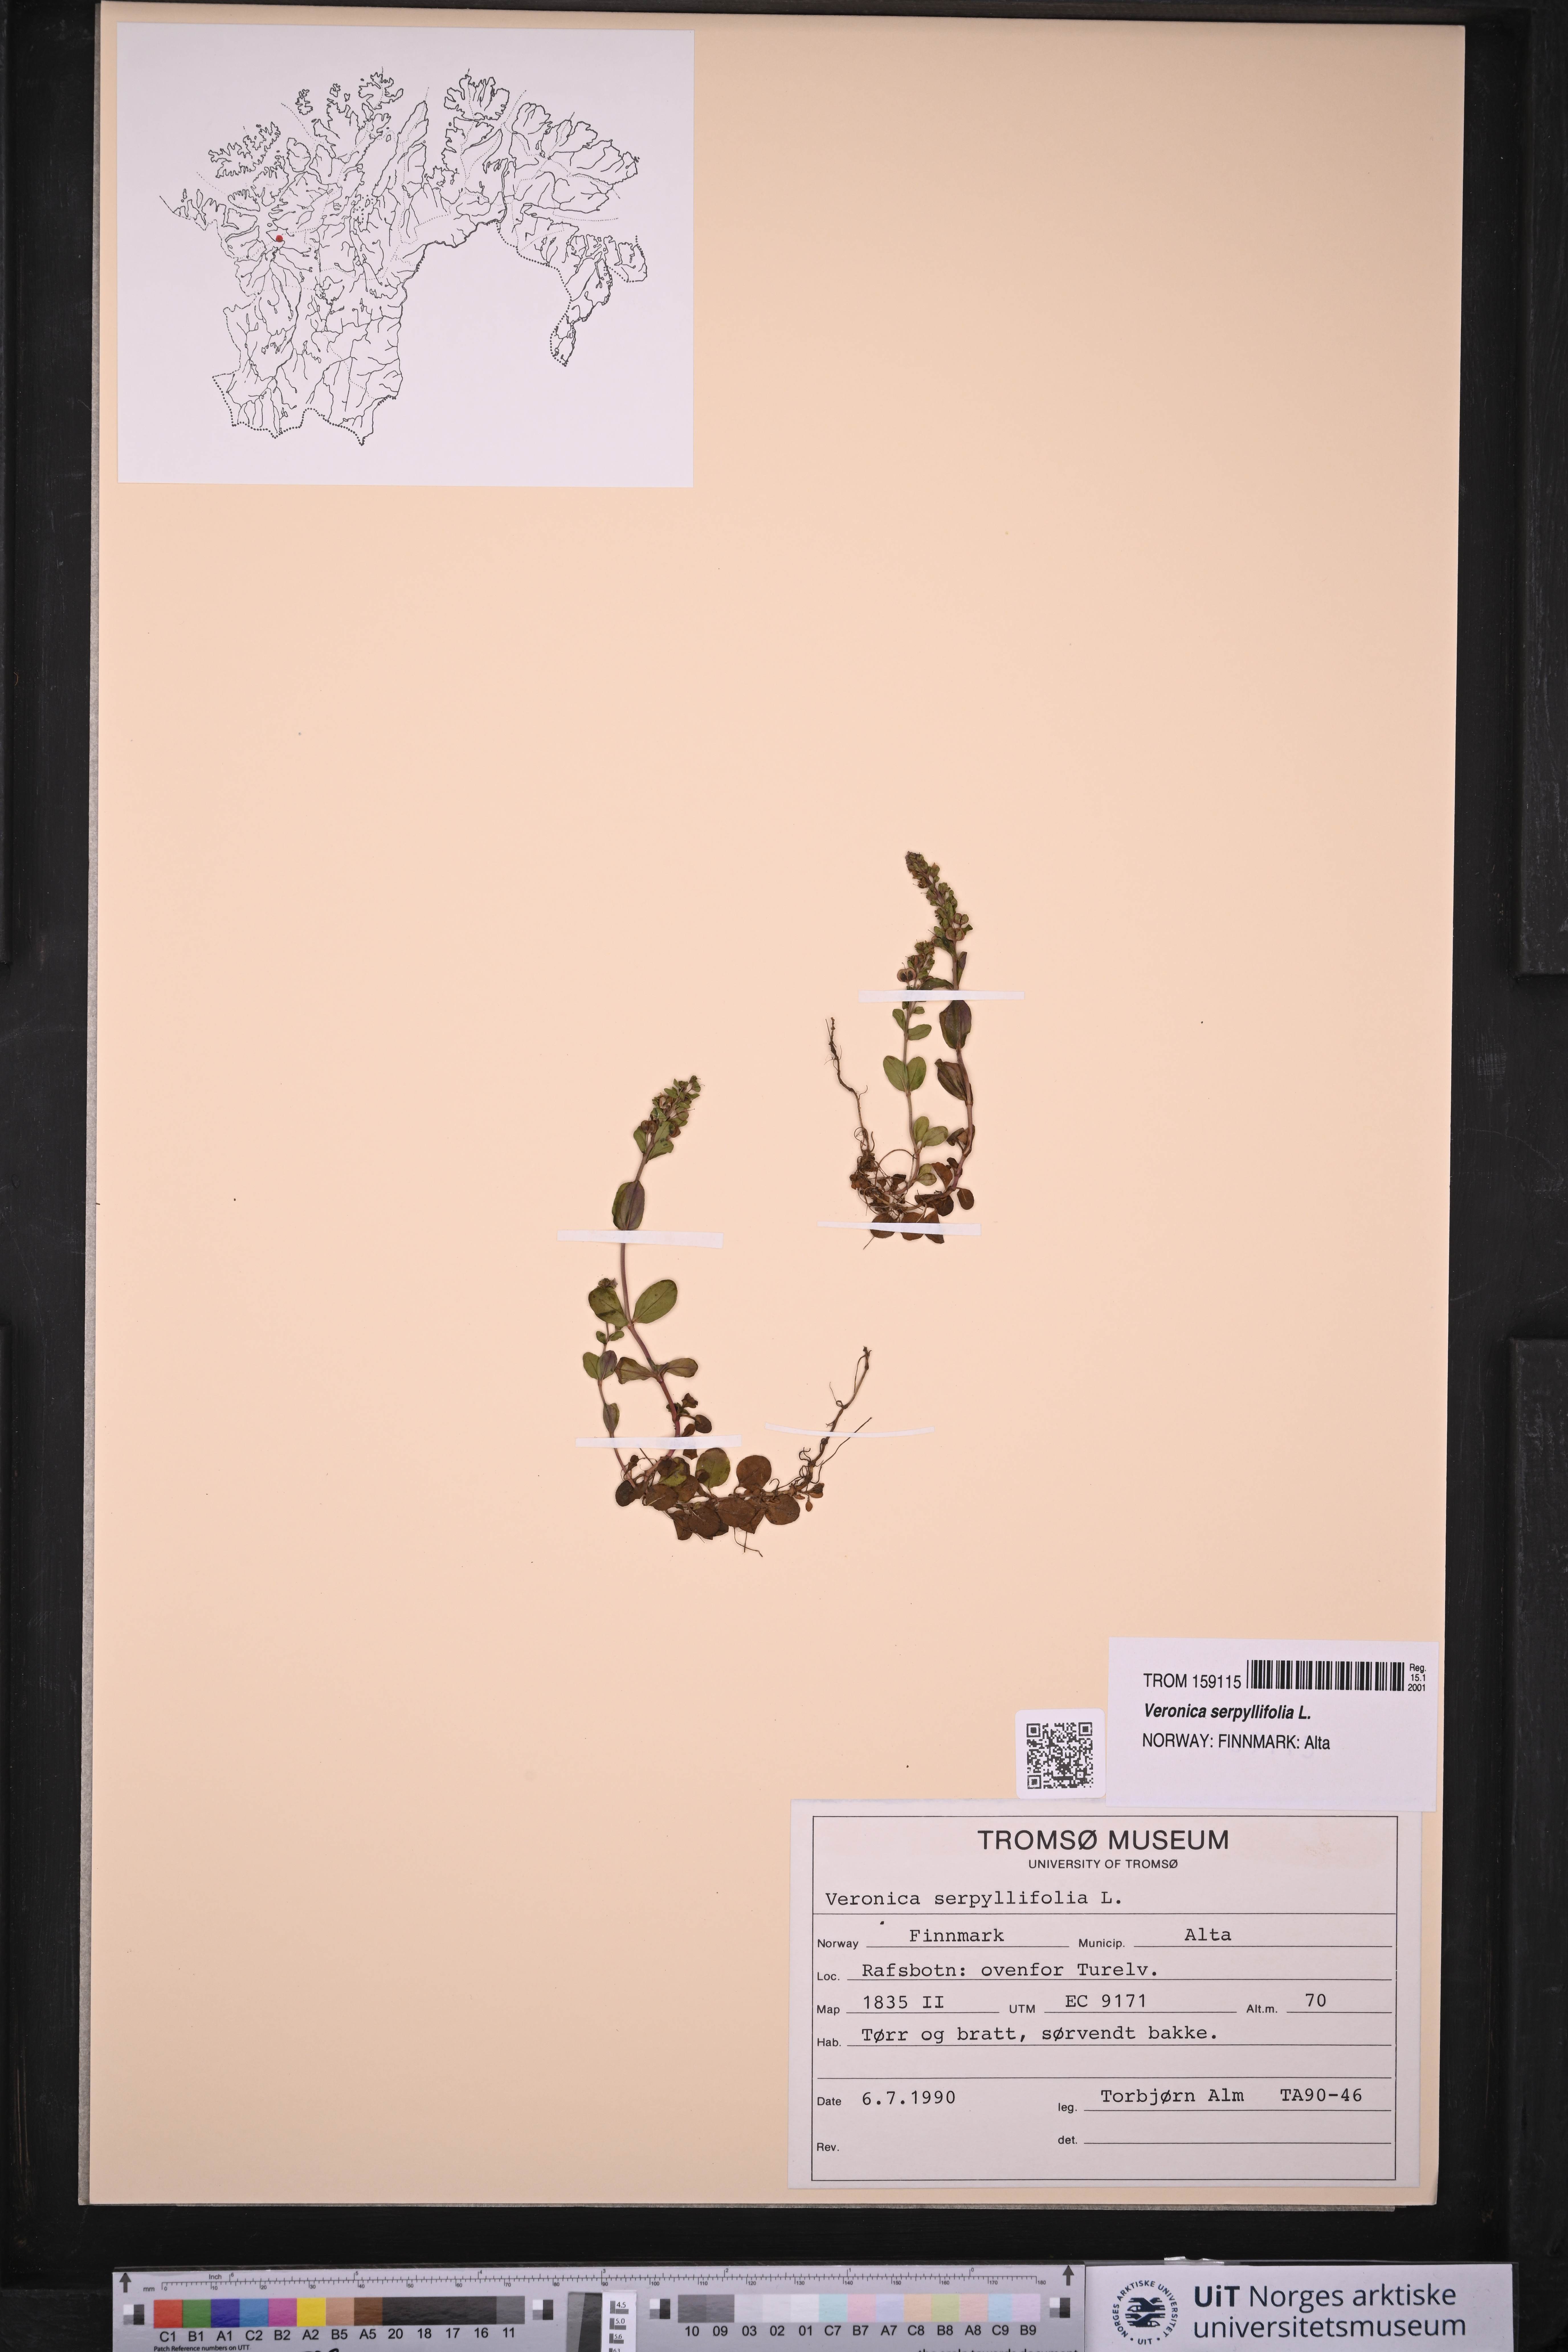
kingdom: Plantae
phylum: Tracheophyta
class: Magnoliopsida
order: Lamiales
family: Plantaginaceae
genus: Veronica
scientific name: Veronica serpyllifolia
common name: Thyme-leaved speedwell
